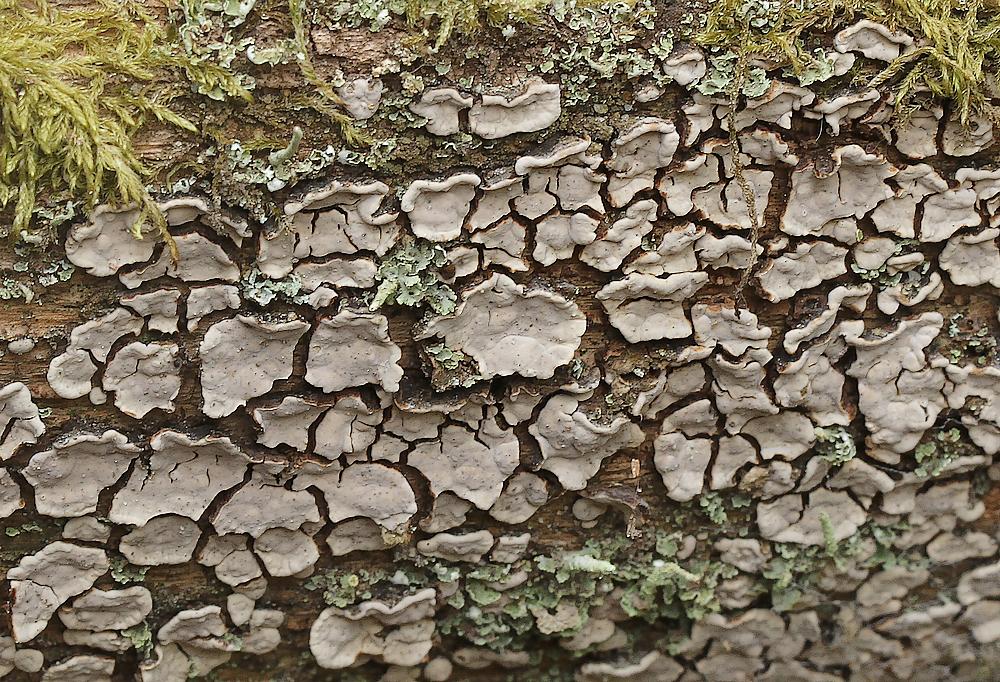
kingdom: Fungi
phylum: Basidiomycota
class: Agaricomycetes
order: Russulales
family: Stereaceae
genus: Xylobolus
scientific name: Xylobolus frustulatus
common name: mønster-lædersvamp
